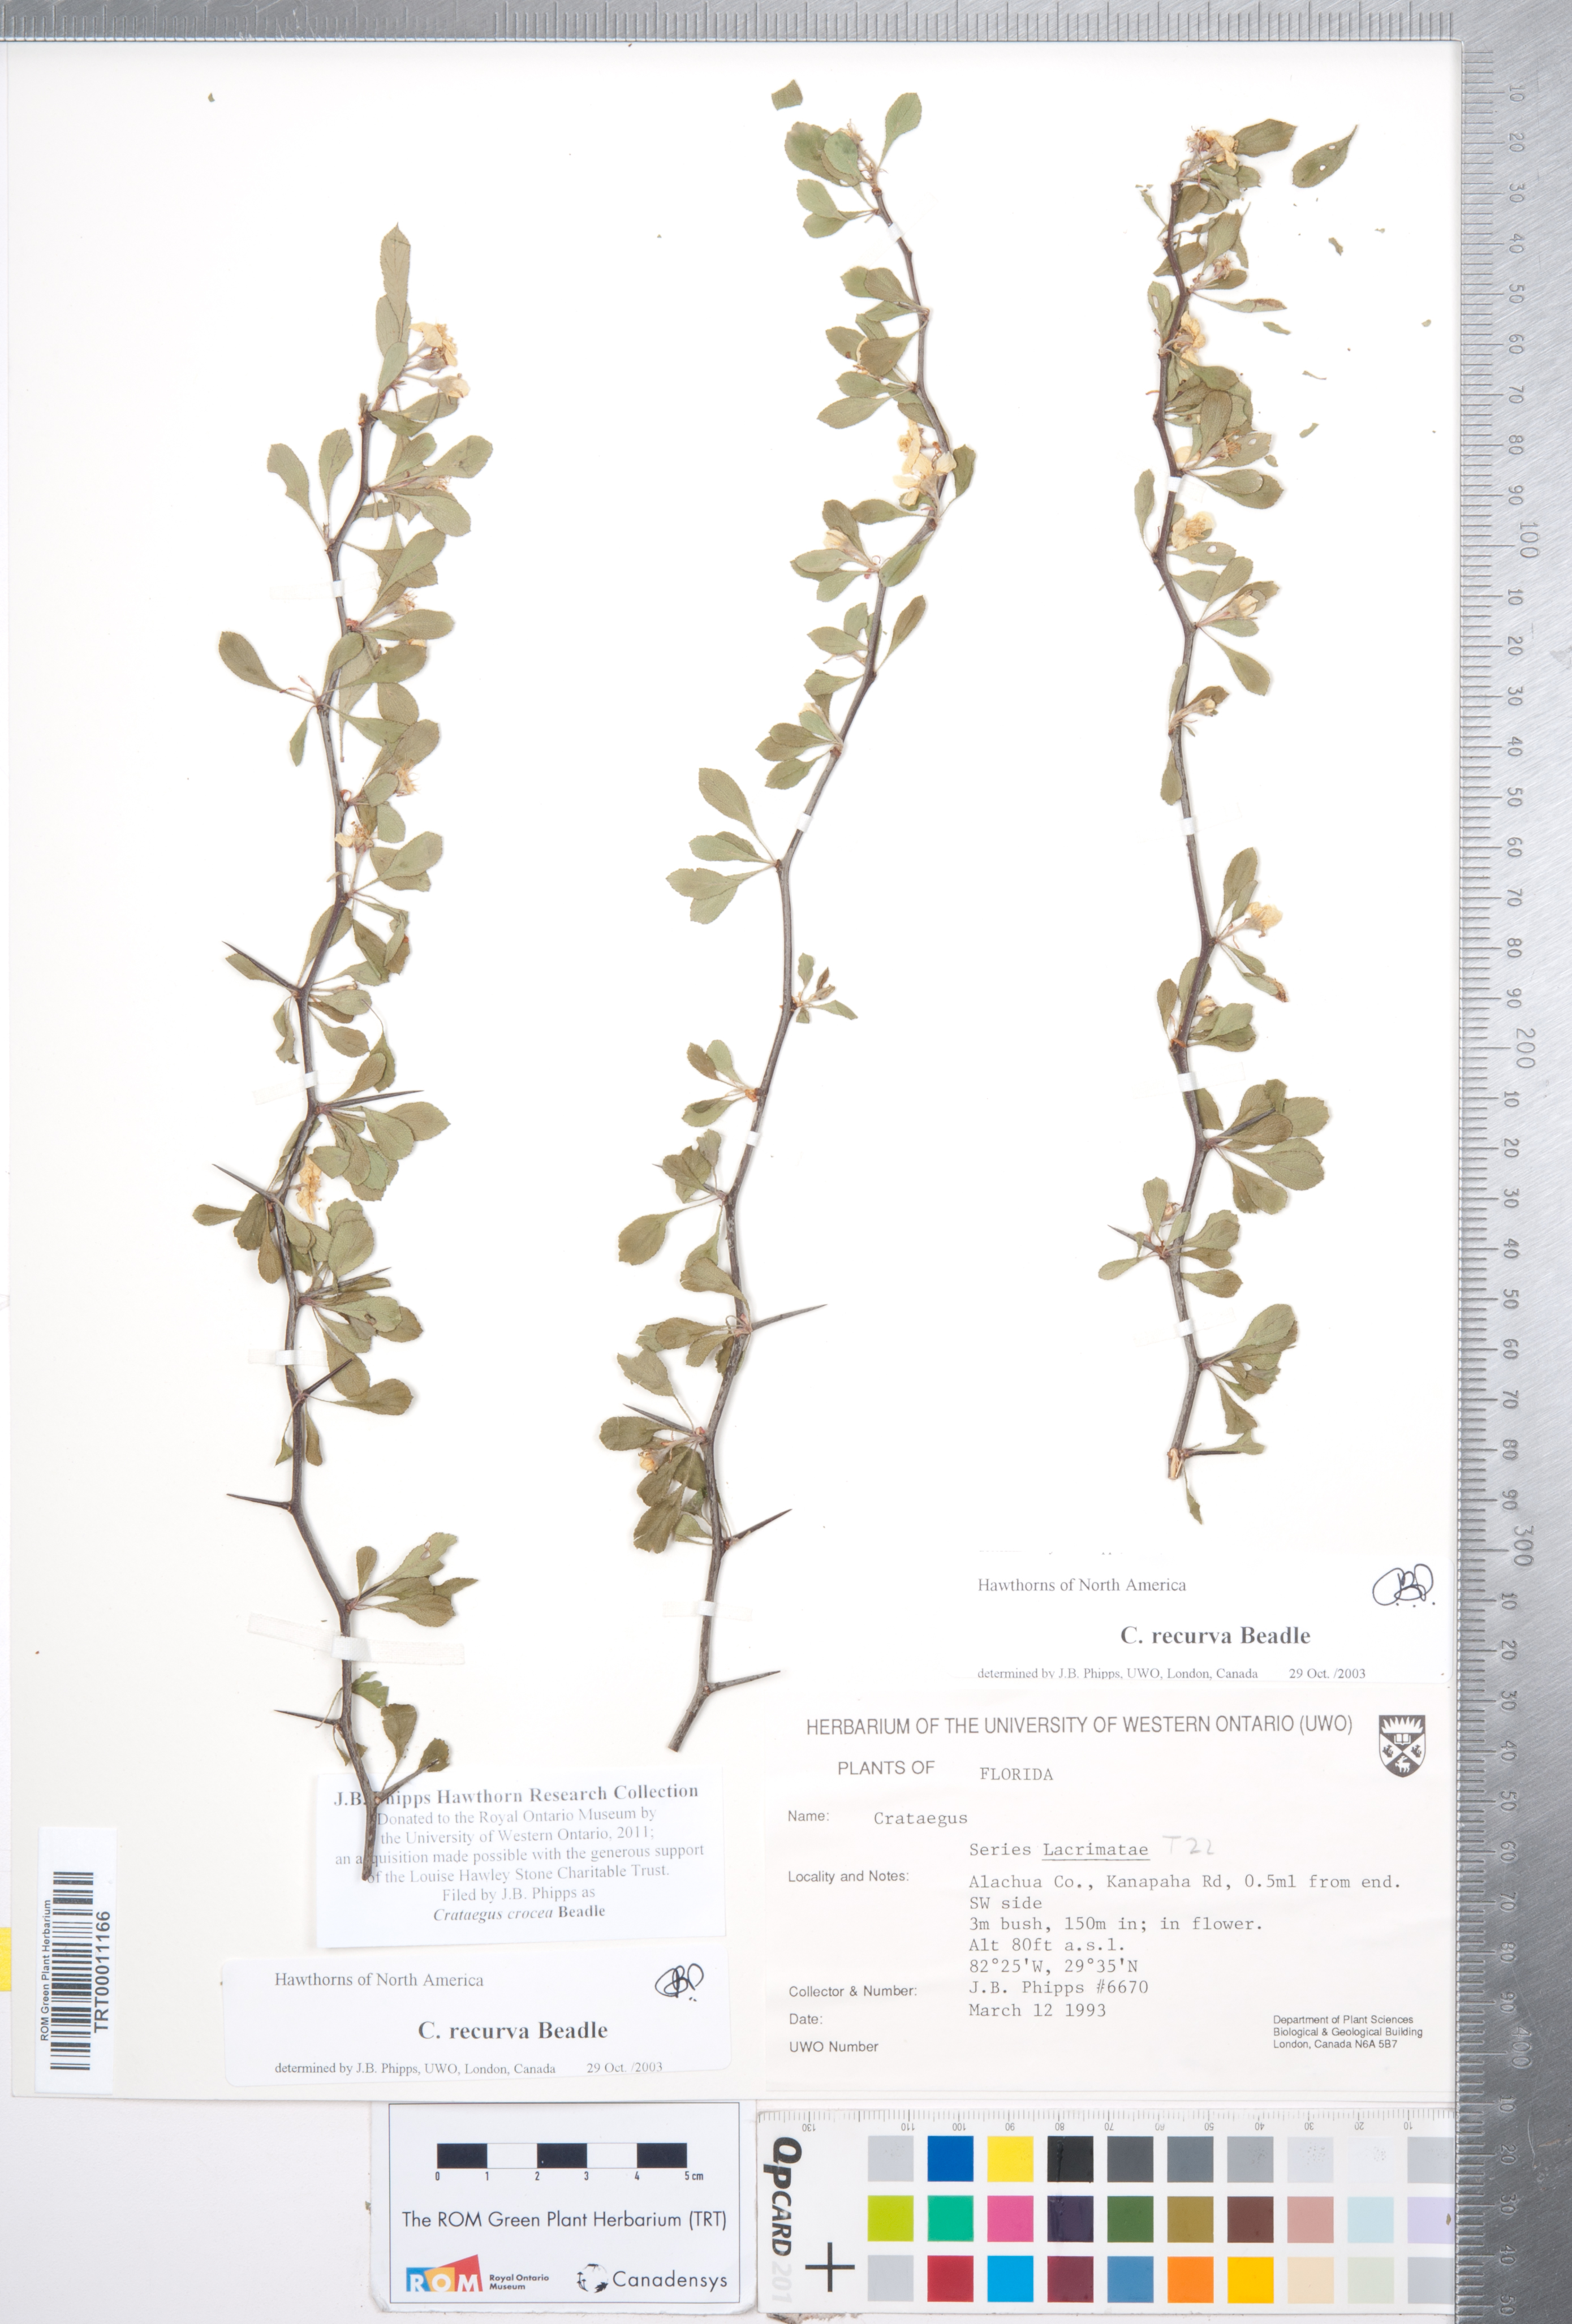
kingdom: Plantae
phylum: Tracheophyta
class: Magnoliopsida
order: Rosales
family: Rosaceae
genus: Crataegus
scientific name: Crataegus lassa
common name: Florida hawthorn
